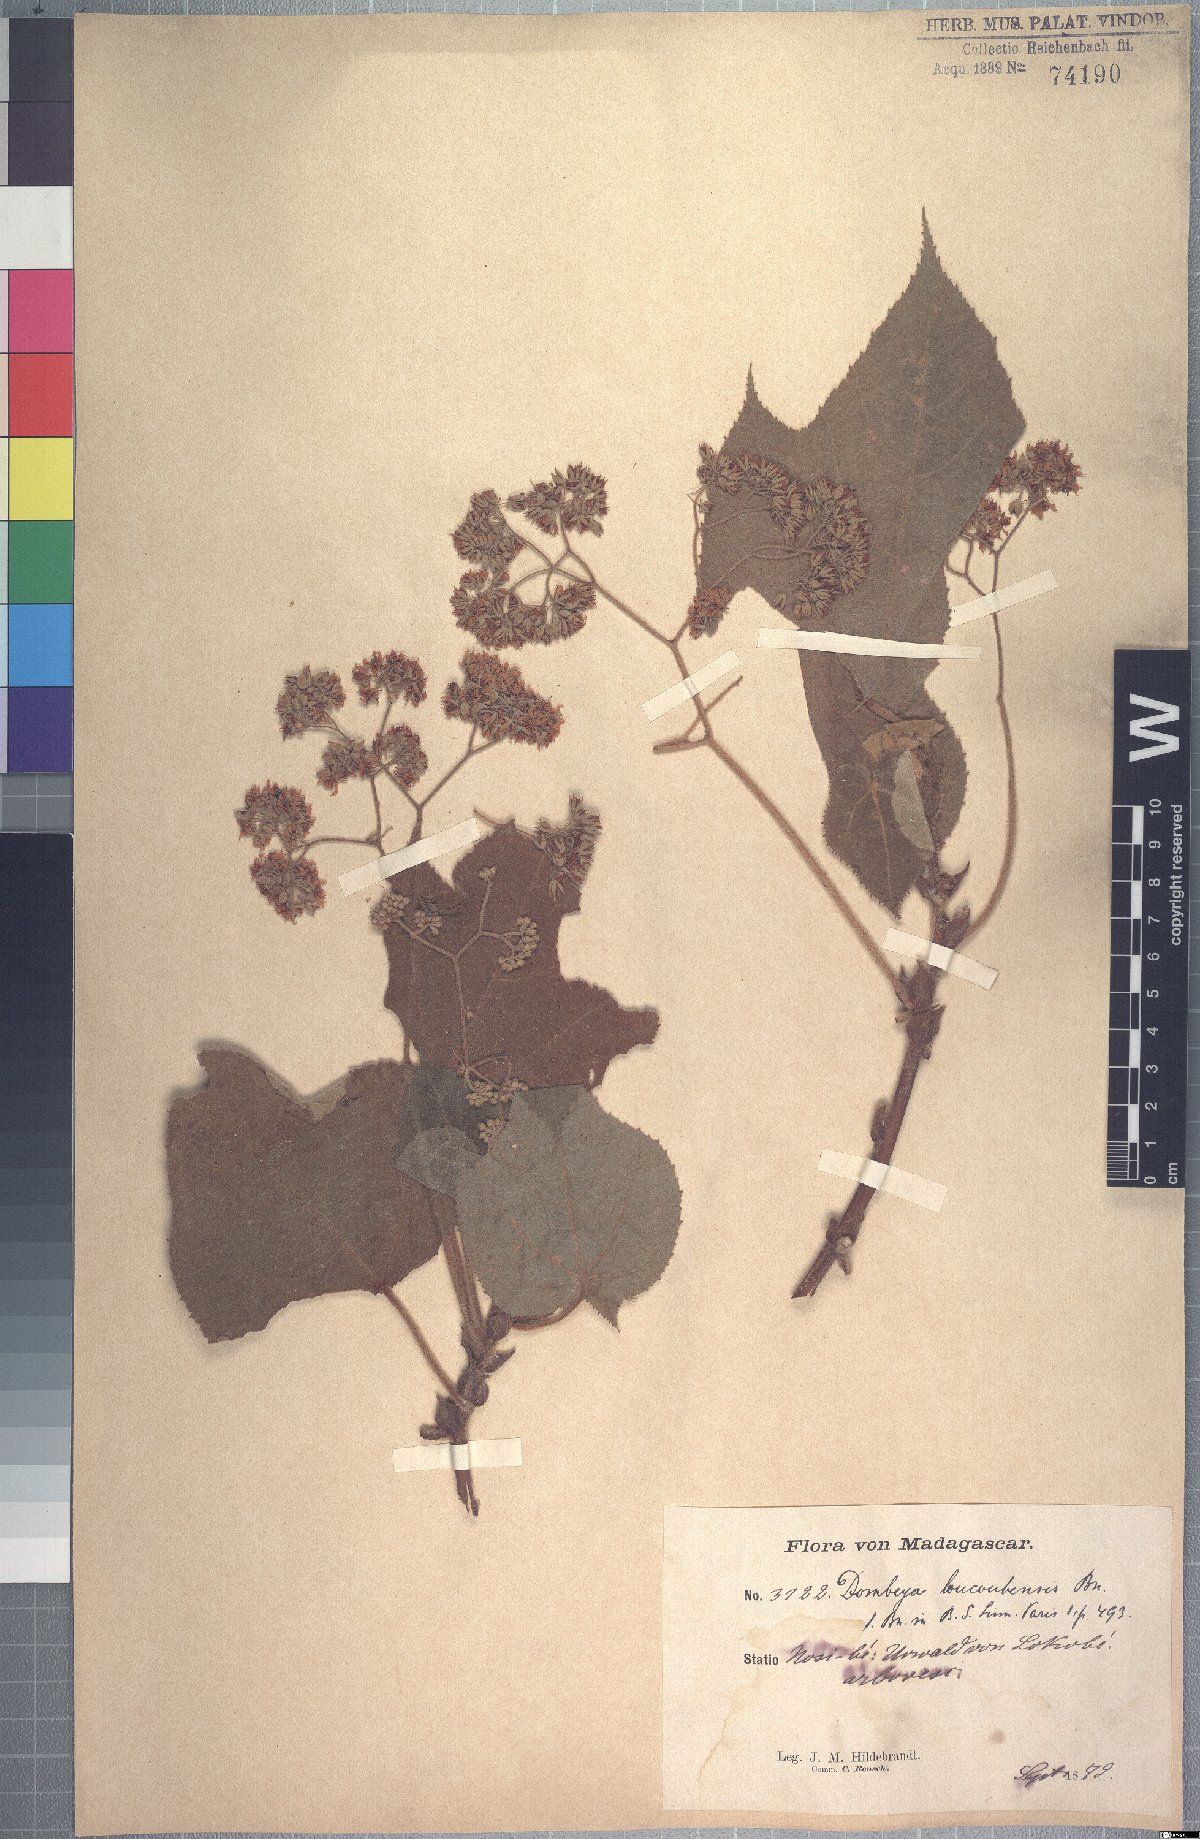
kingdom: Plantae
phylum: Tracheophyta
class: Magnoliopsida
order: Malvales
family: Malvaceae
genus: Dombeya
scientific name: Dombeya mollis
